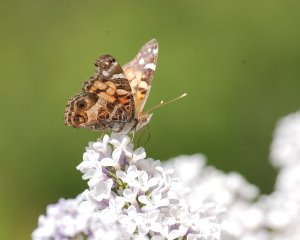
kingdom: Animalia
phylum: Arthropoda
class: Insecta
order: Lepidoptera
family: Nymphalidae
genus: Vanessa
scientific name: Vanessa virginiensis
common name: American Lady
